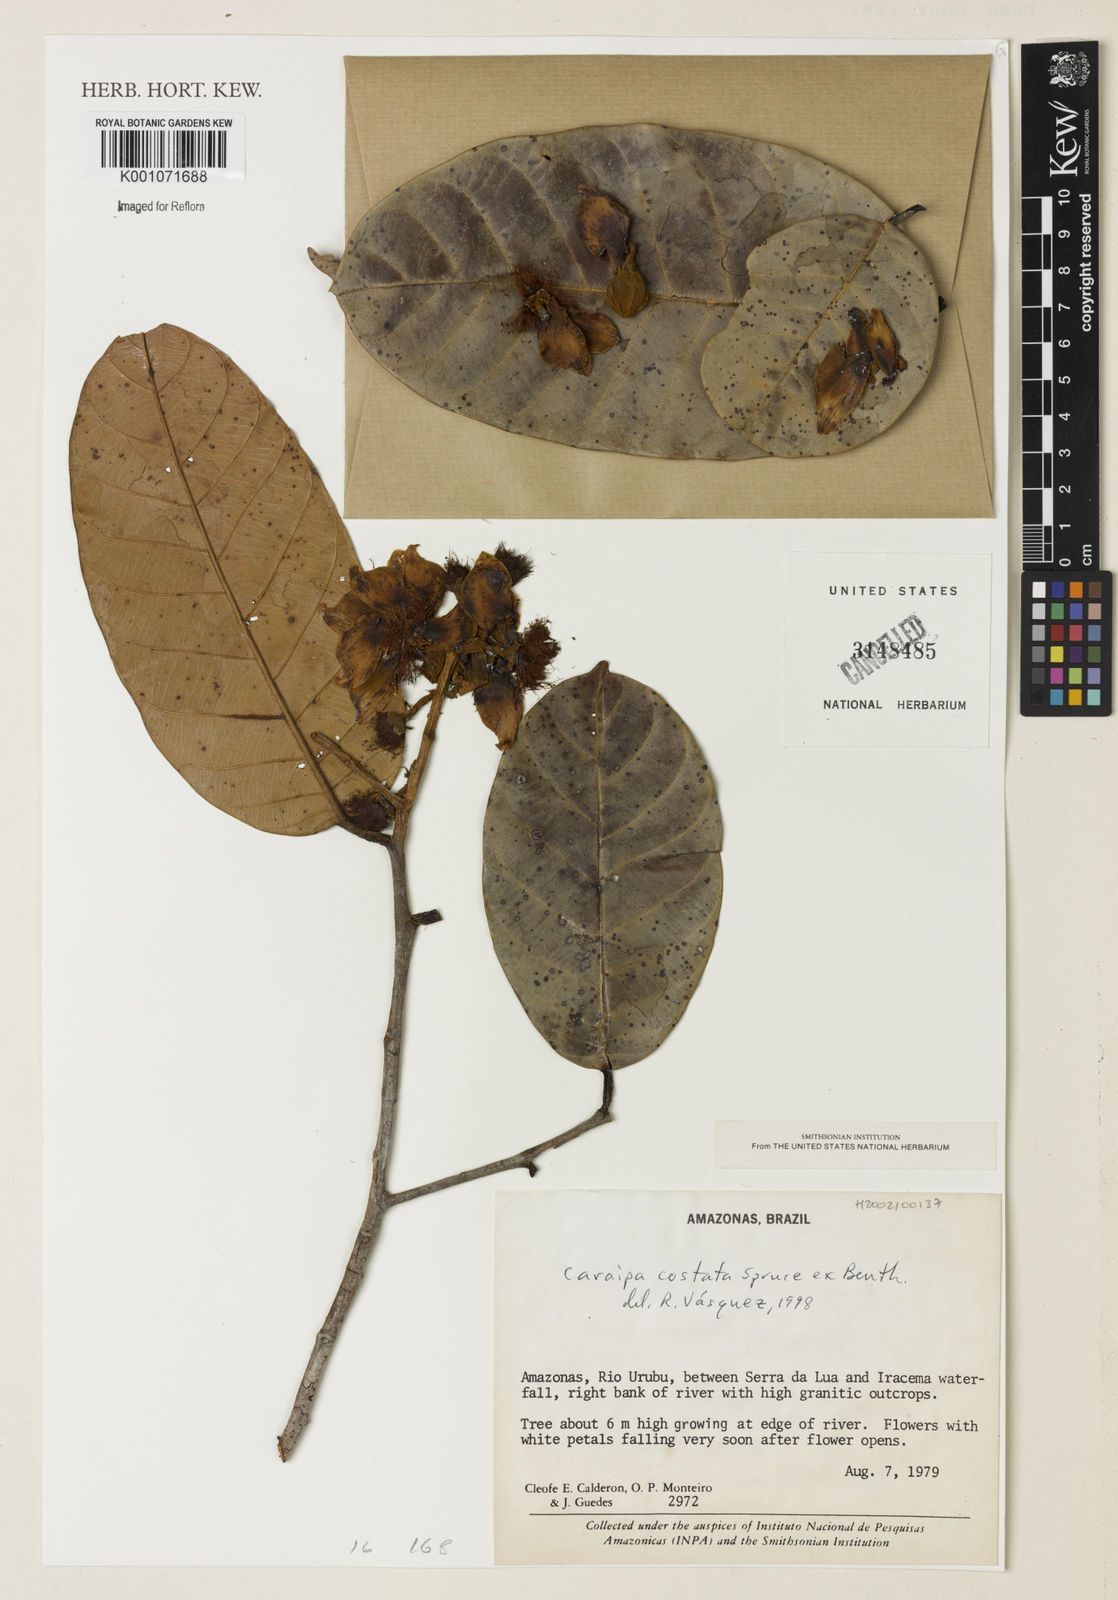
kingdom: Plantae
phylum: Tracheophyta
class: Magnoliopsida
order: Malpighiales
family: Calophyllaceae
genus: Caraipa
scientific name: Caraipa costata
